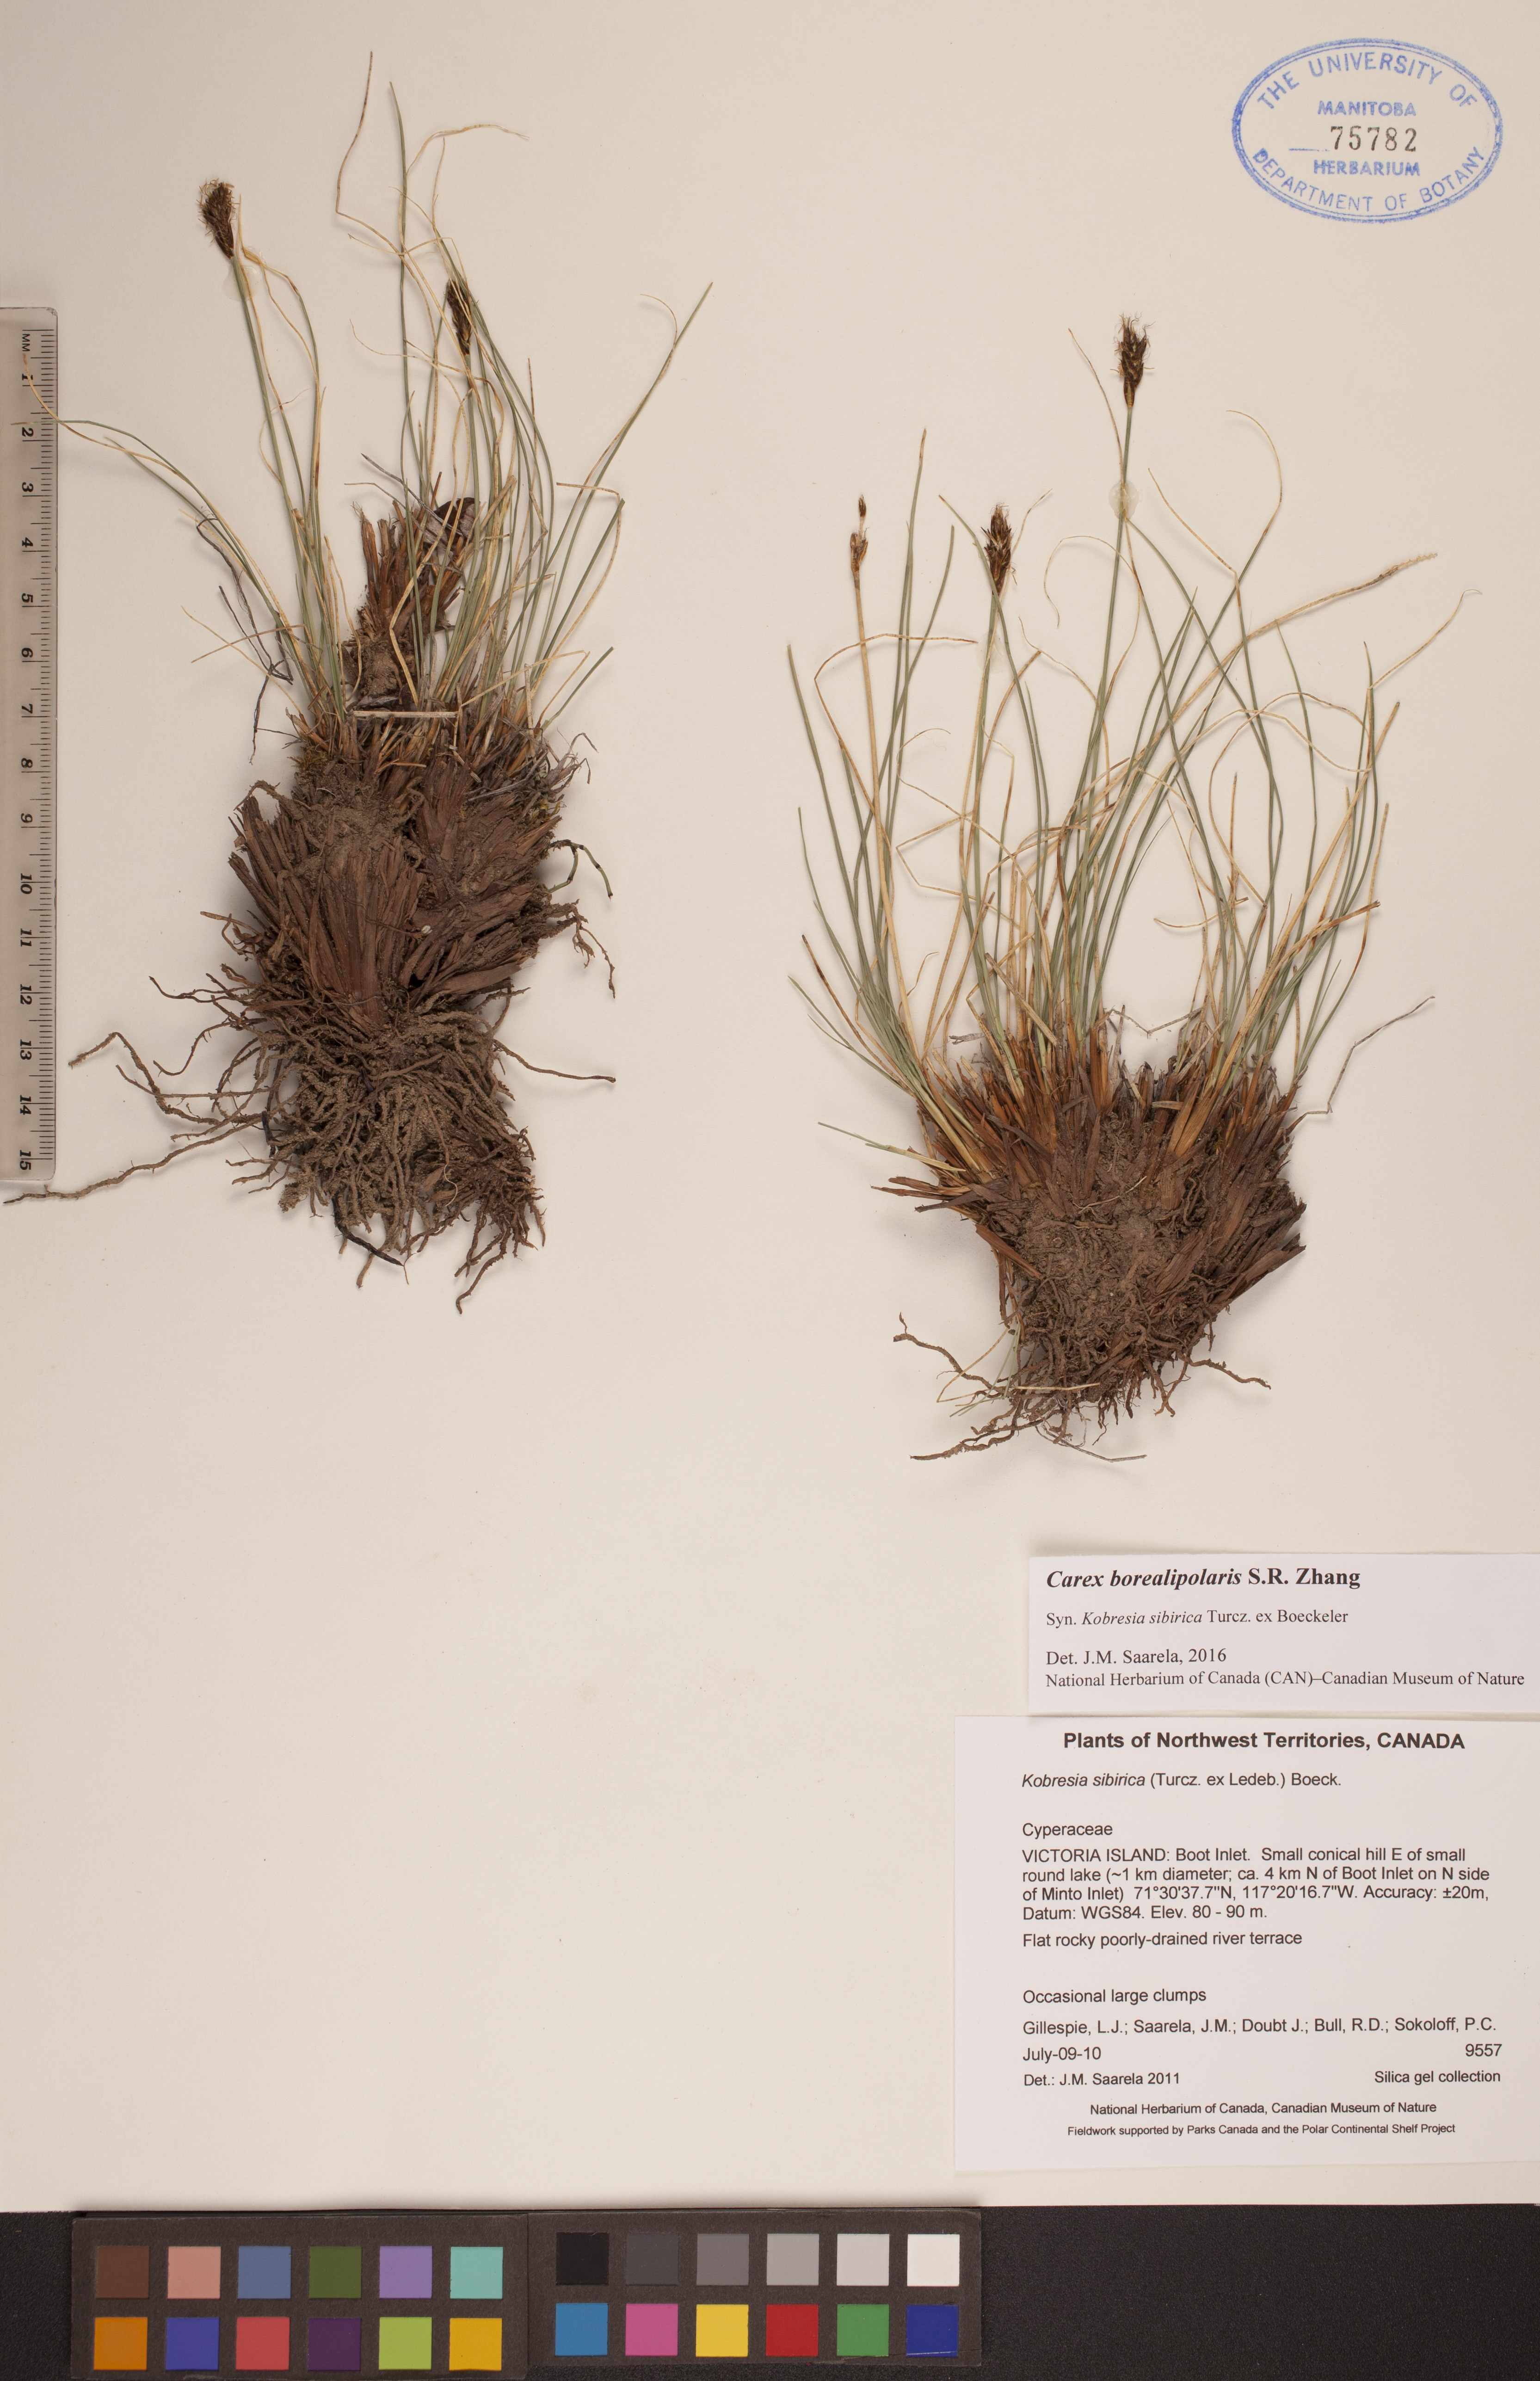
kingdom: Plantae
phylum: Tracheophyta
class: Liliopsida
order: Poales
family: Cyperaceae
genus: Carex
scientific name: Carex borealipolaris
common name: Siberian bog sedge
